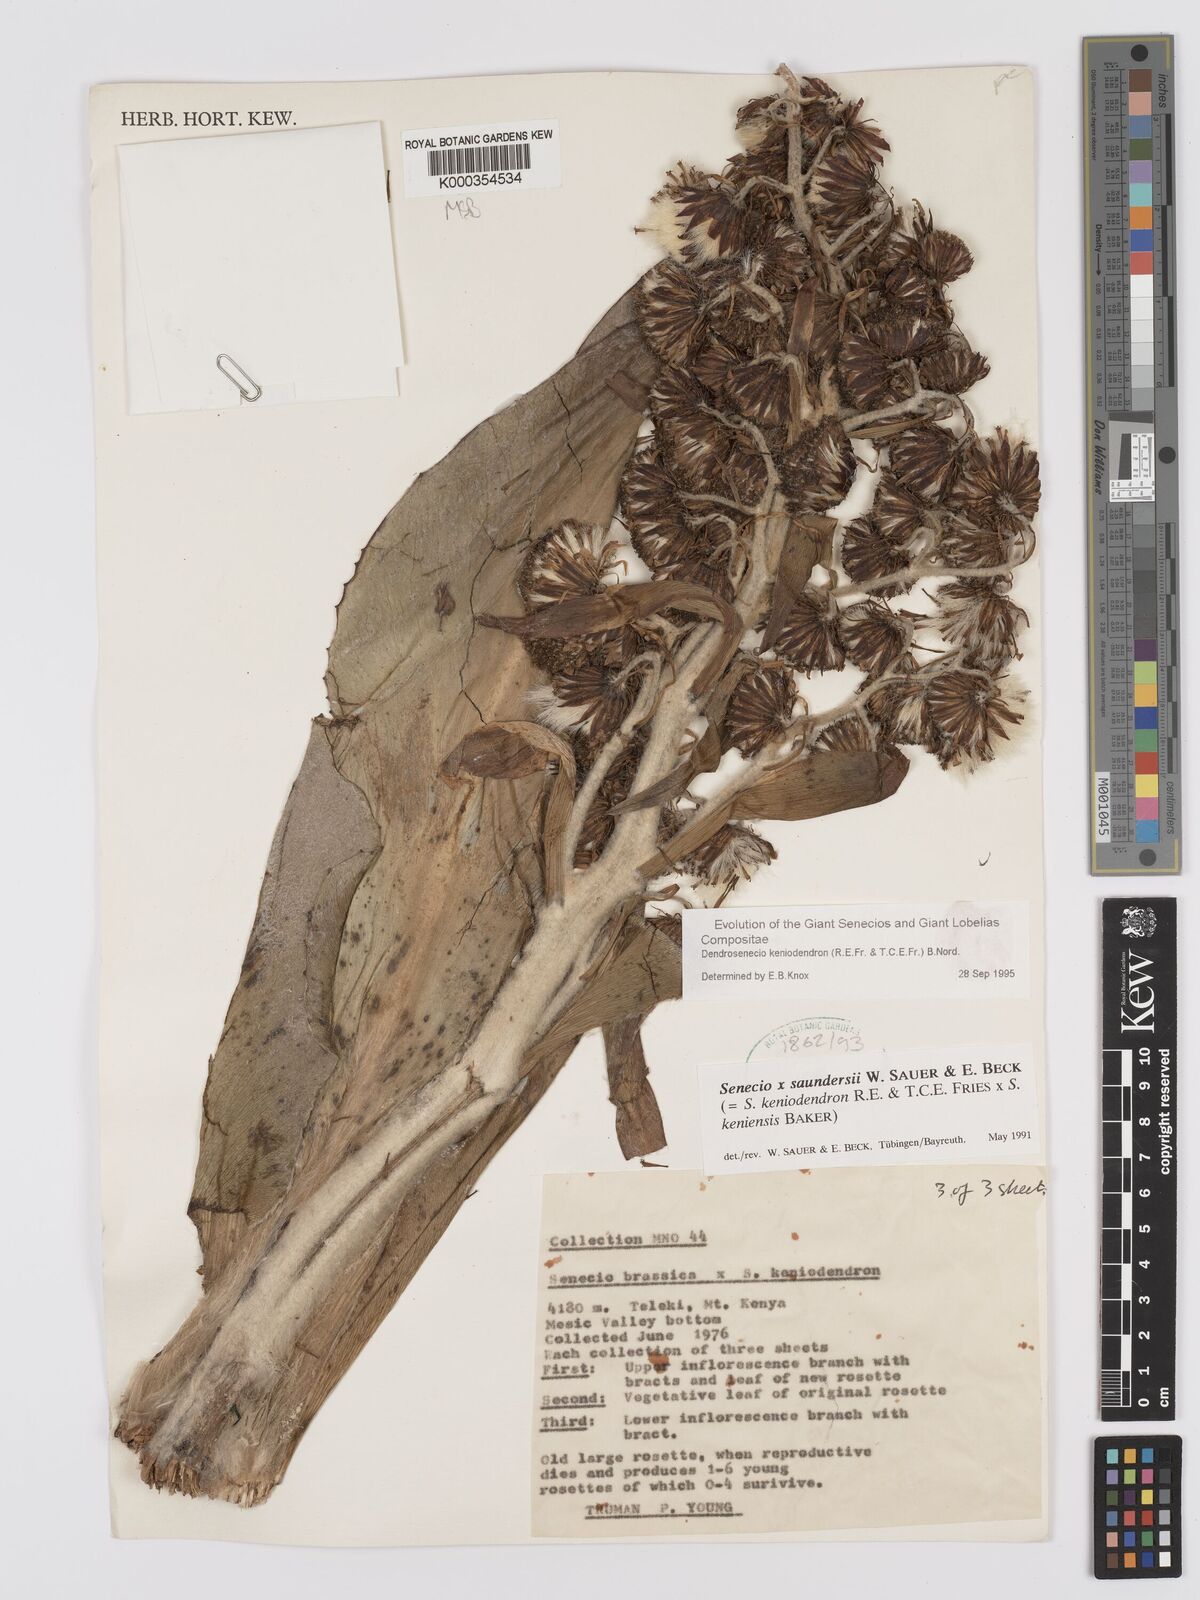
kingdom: Plantae
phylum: Tracheophyta
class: Magnoliopsida
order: Asterales
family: Asteraceae
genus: Dendrosenecio
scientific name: Dendrosenecio
